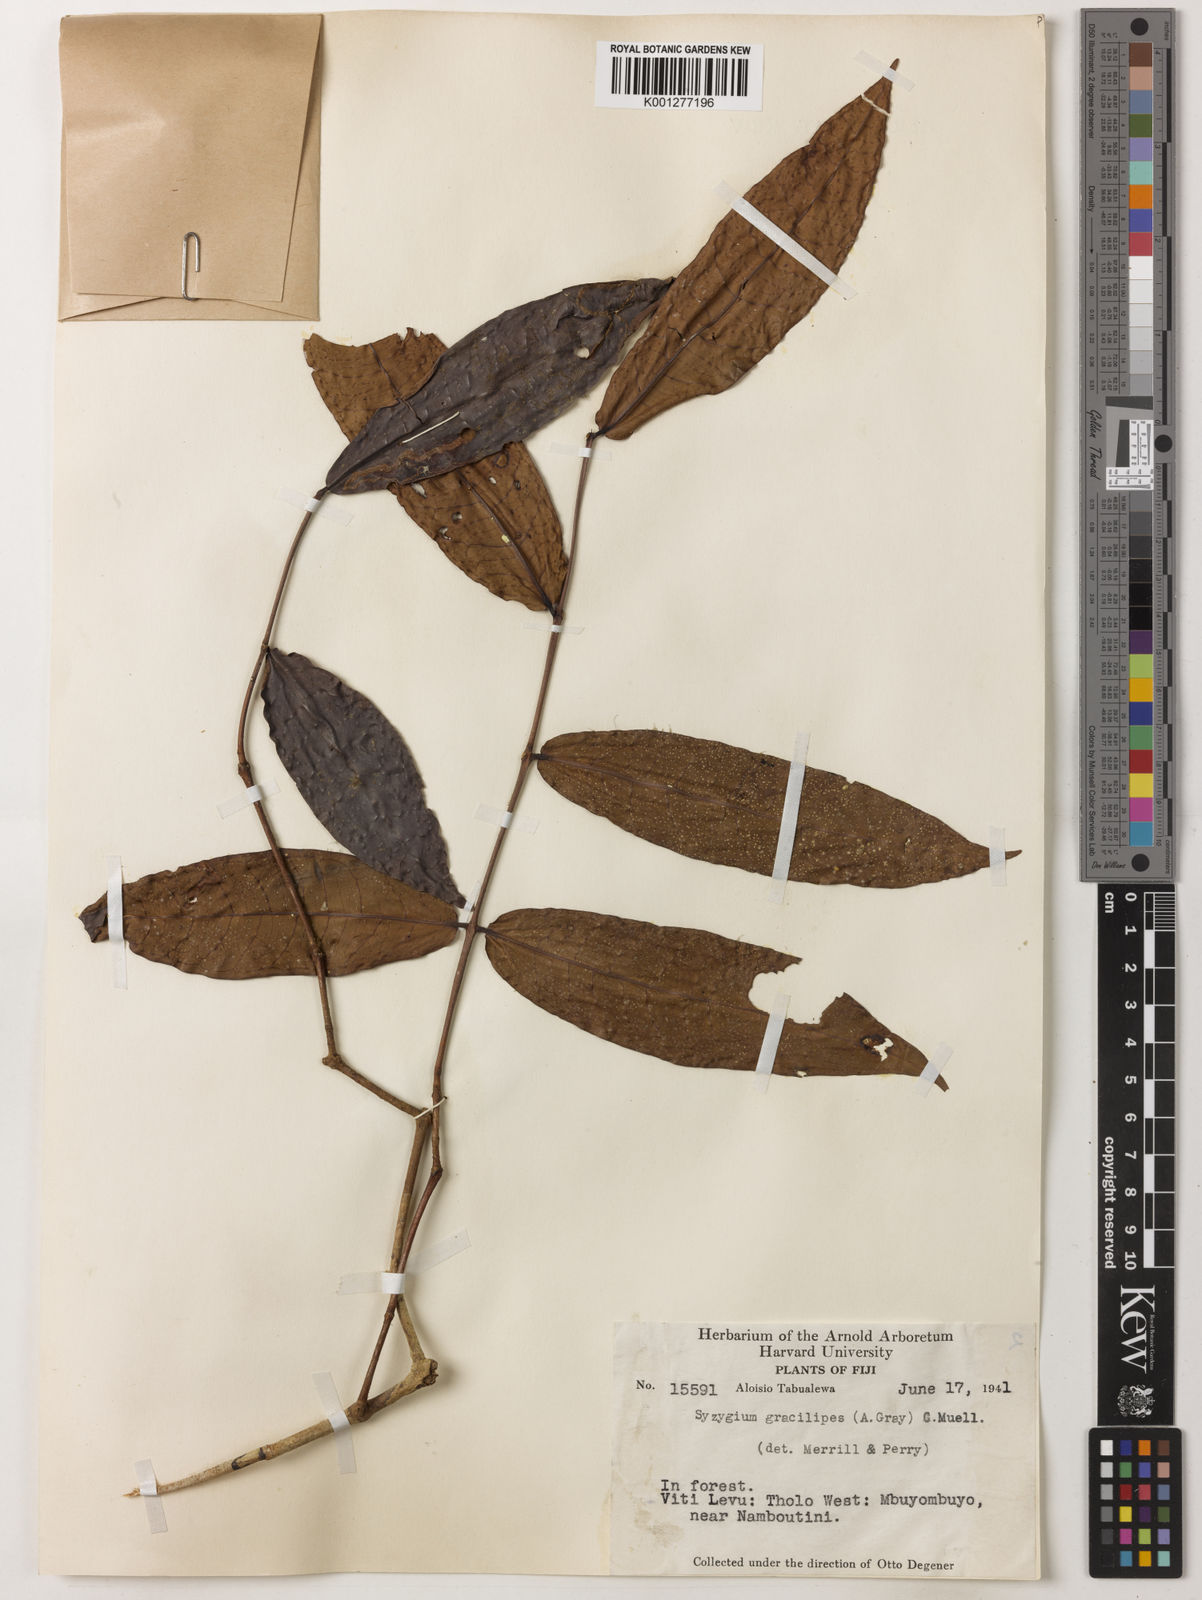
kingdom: Plantae
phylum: Tracheophyta
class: Magnoliopsida
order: Myrtales
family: Myrtaceae
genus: Syzygium
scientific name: Syzygium gracilipes
